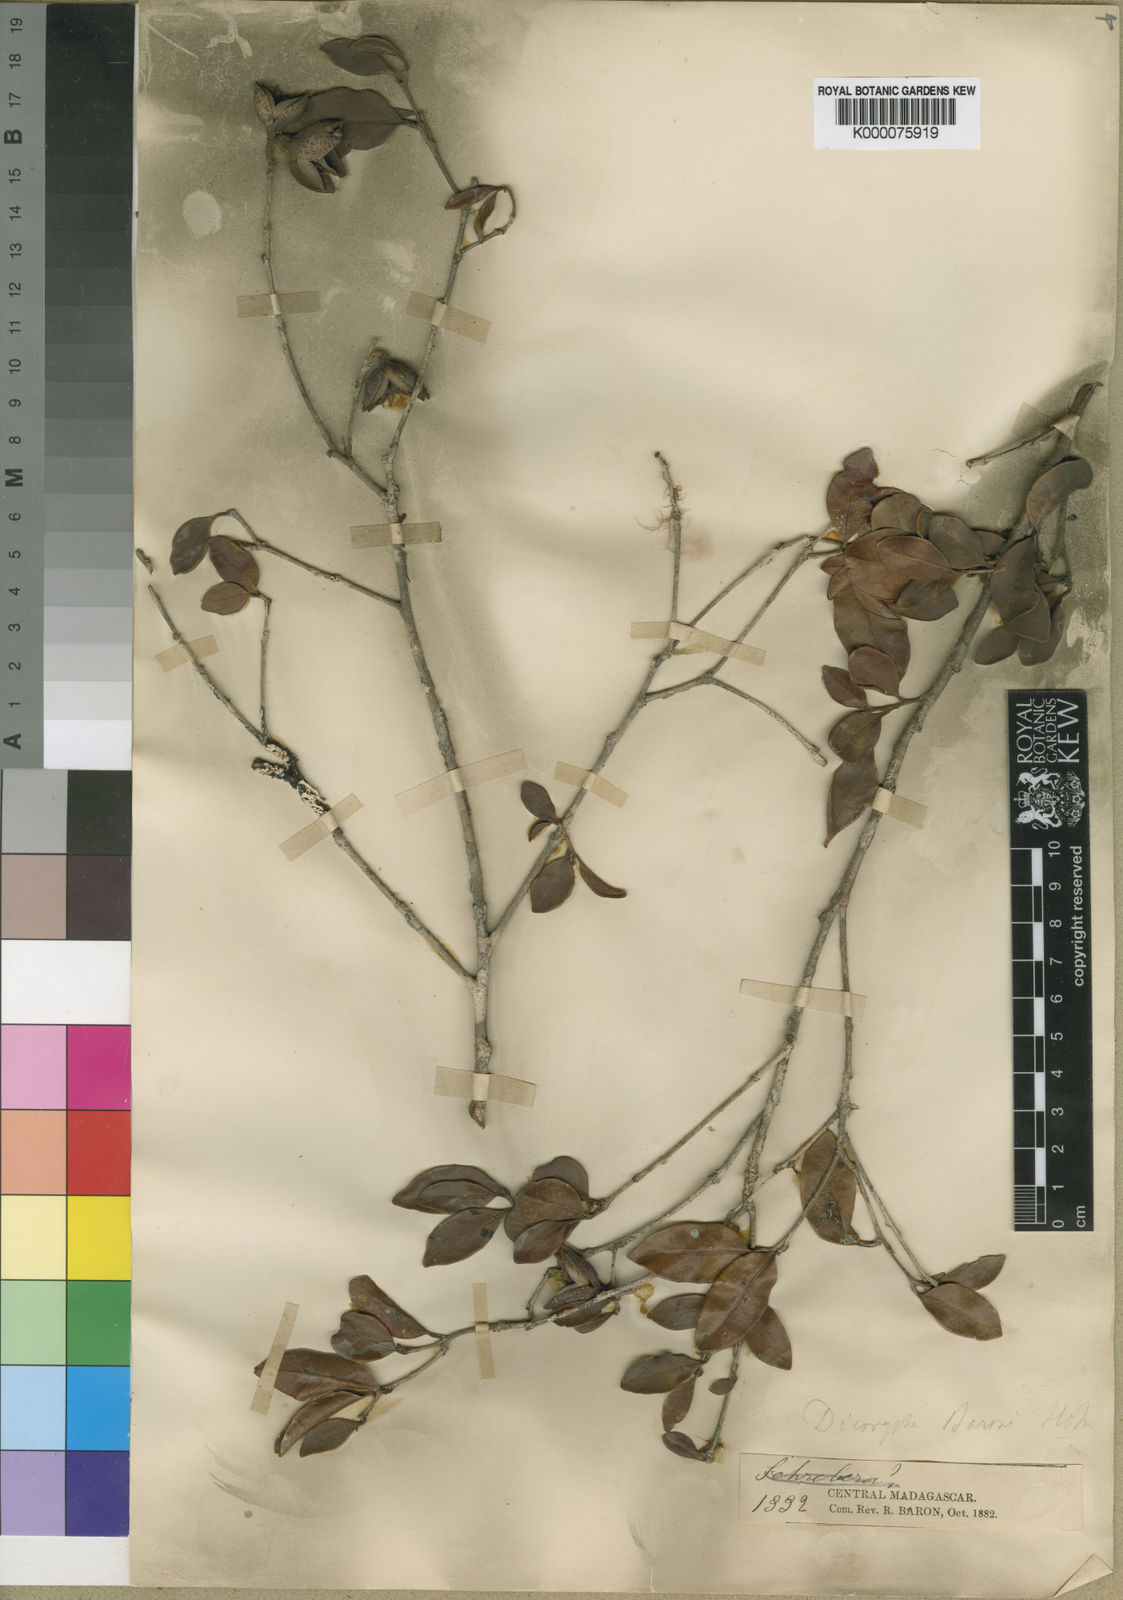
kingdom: Plantae
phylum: Tracheophyta
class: Magnoliopsida
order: Saxifragales
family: Hamamelidaceae
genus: Dicoryphe
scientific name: Dicoryphe
